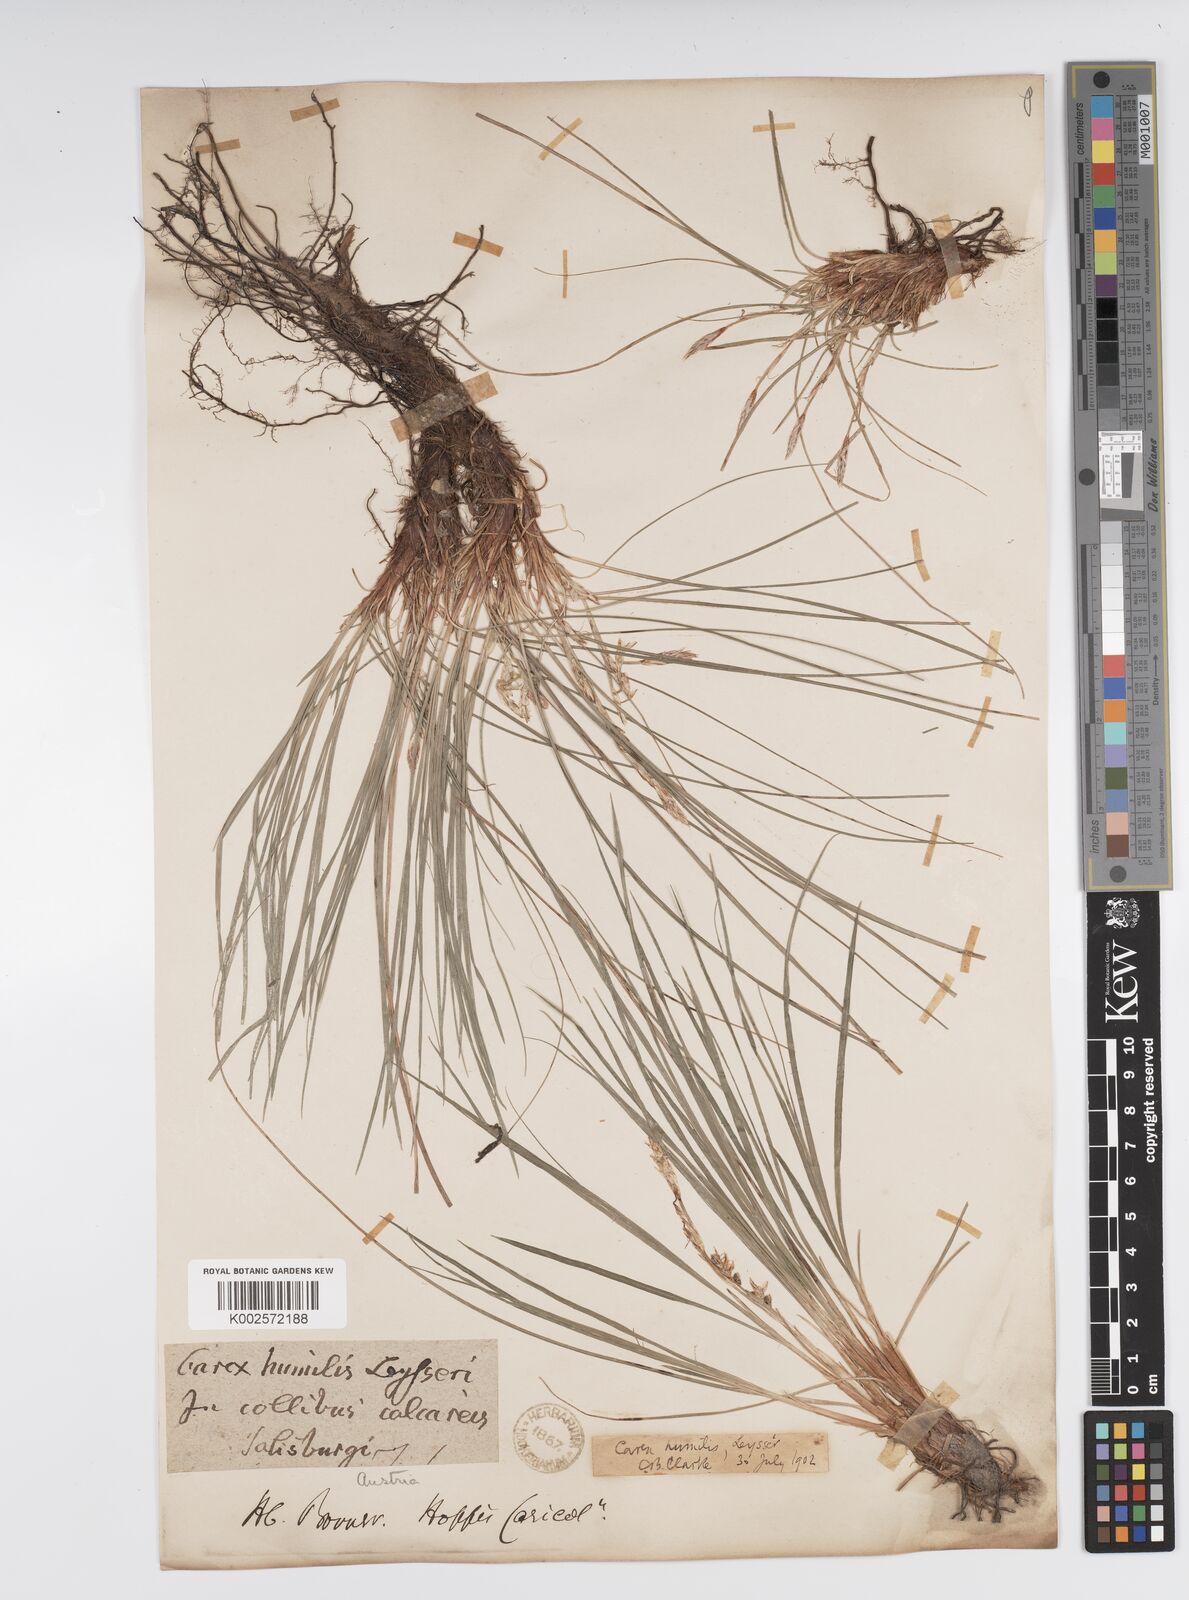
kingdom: Plantae
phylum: Tracheophyta
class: Liliopsida
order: Poales
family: Cyperaceae
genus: Carex
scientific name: Carex humilis
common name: Dwarf sedge
